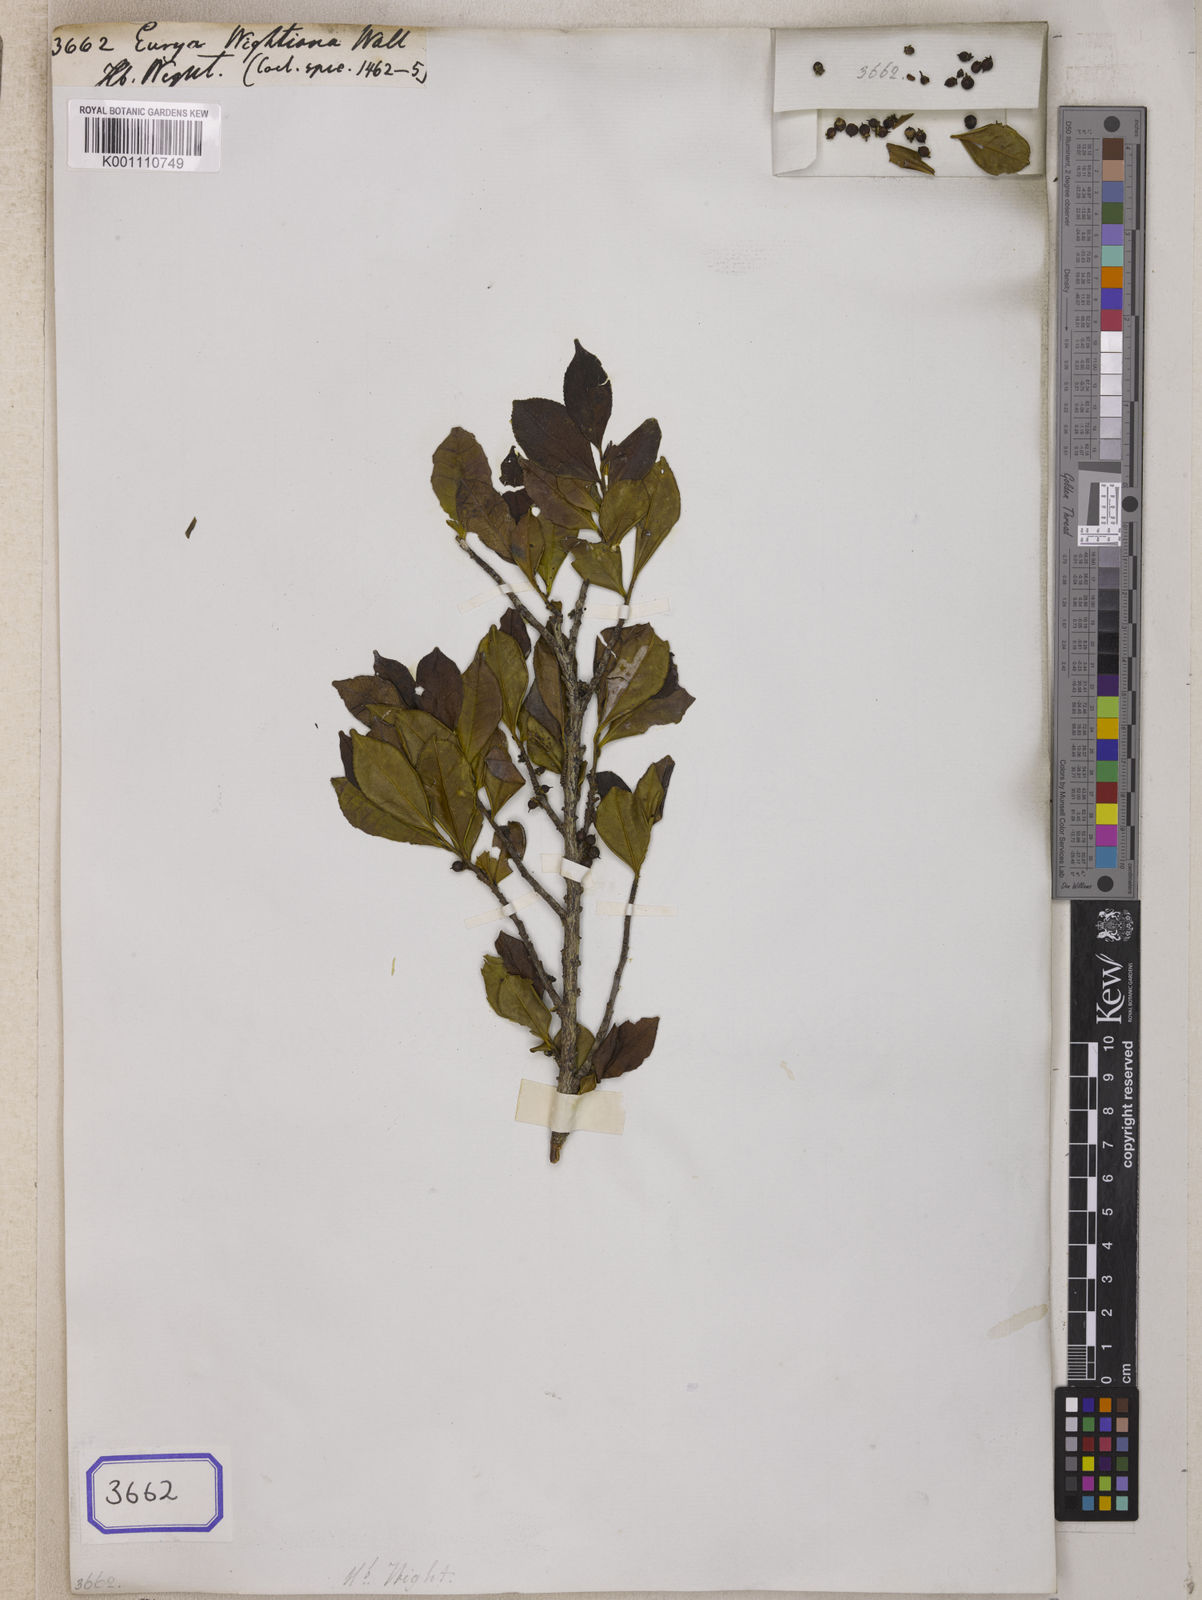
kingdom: Plantae
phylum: Tracheophyta
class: Magnoliopsida
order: Ericales
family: Pentaphylacaceae
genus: Eurya
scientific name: Eurya
